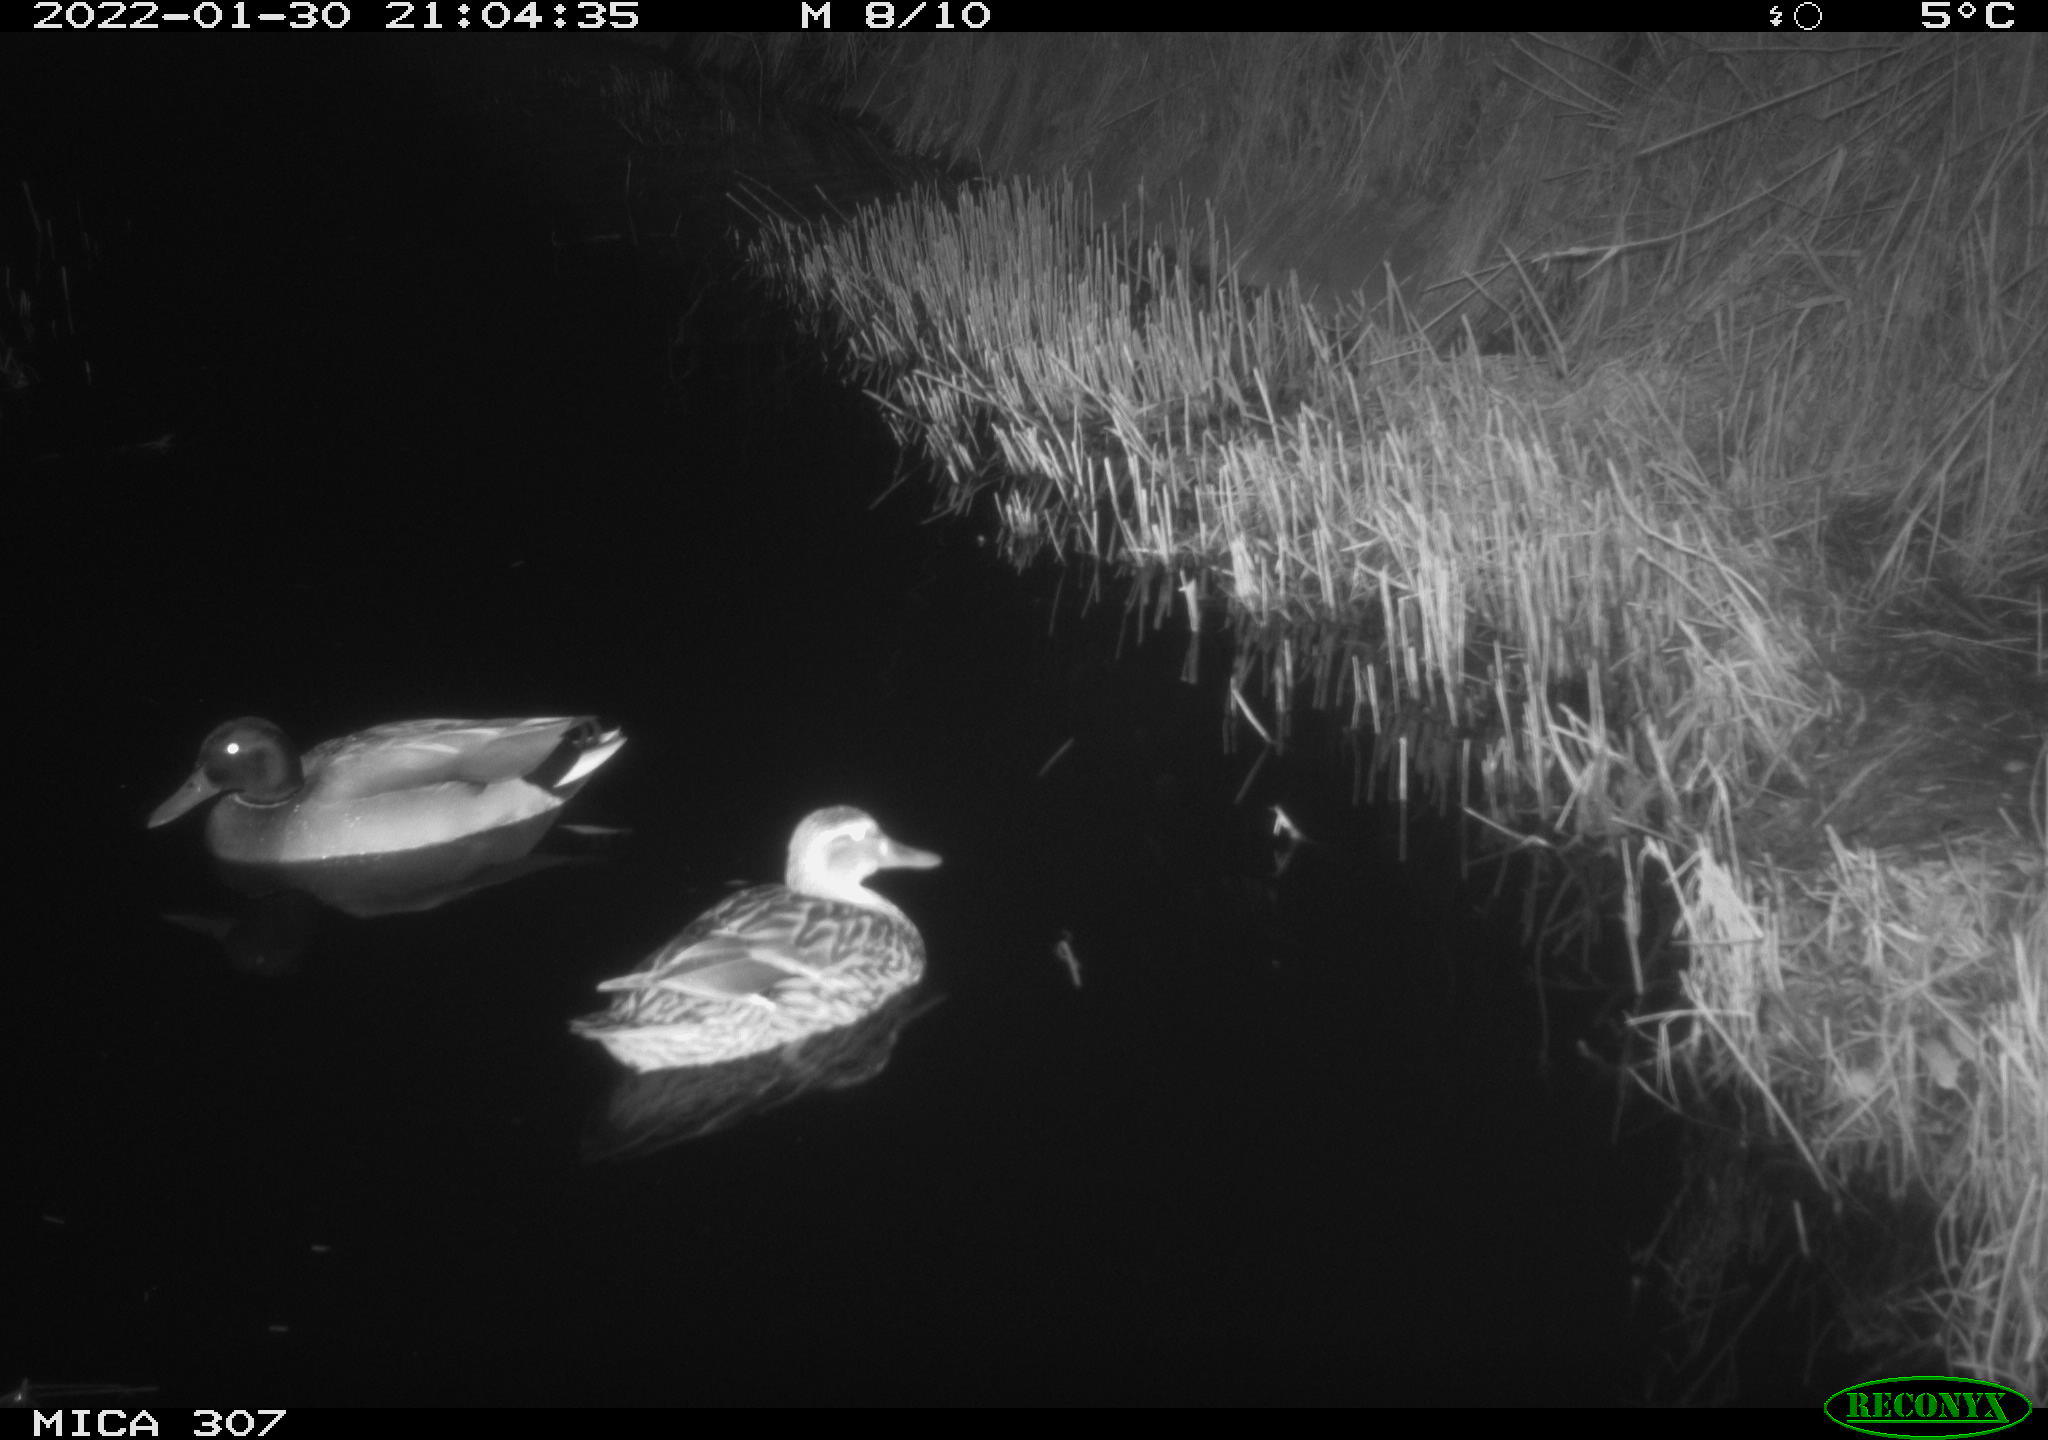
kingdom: Animalia
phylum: Chordata
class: Aves
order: Anseriformes
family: Anatidae
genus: Anas
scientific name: Anas
